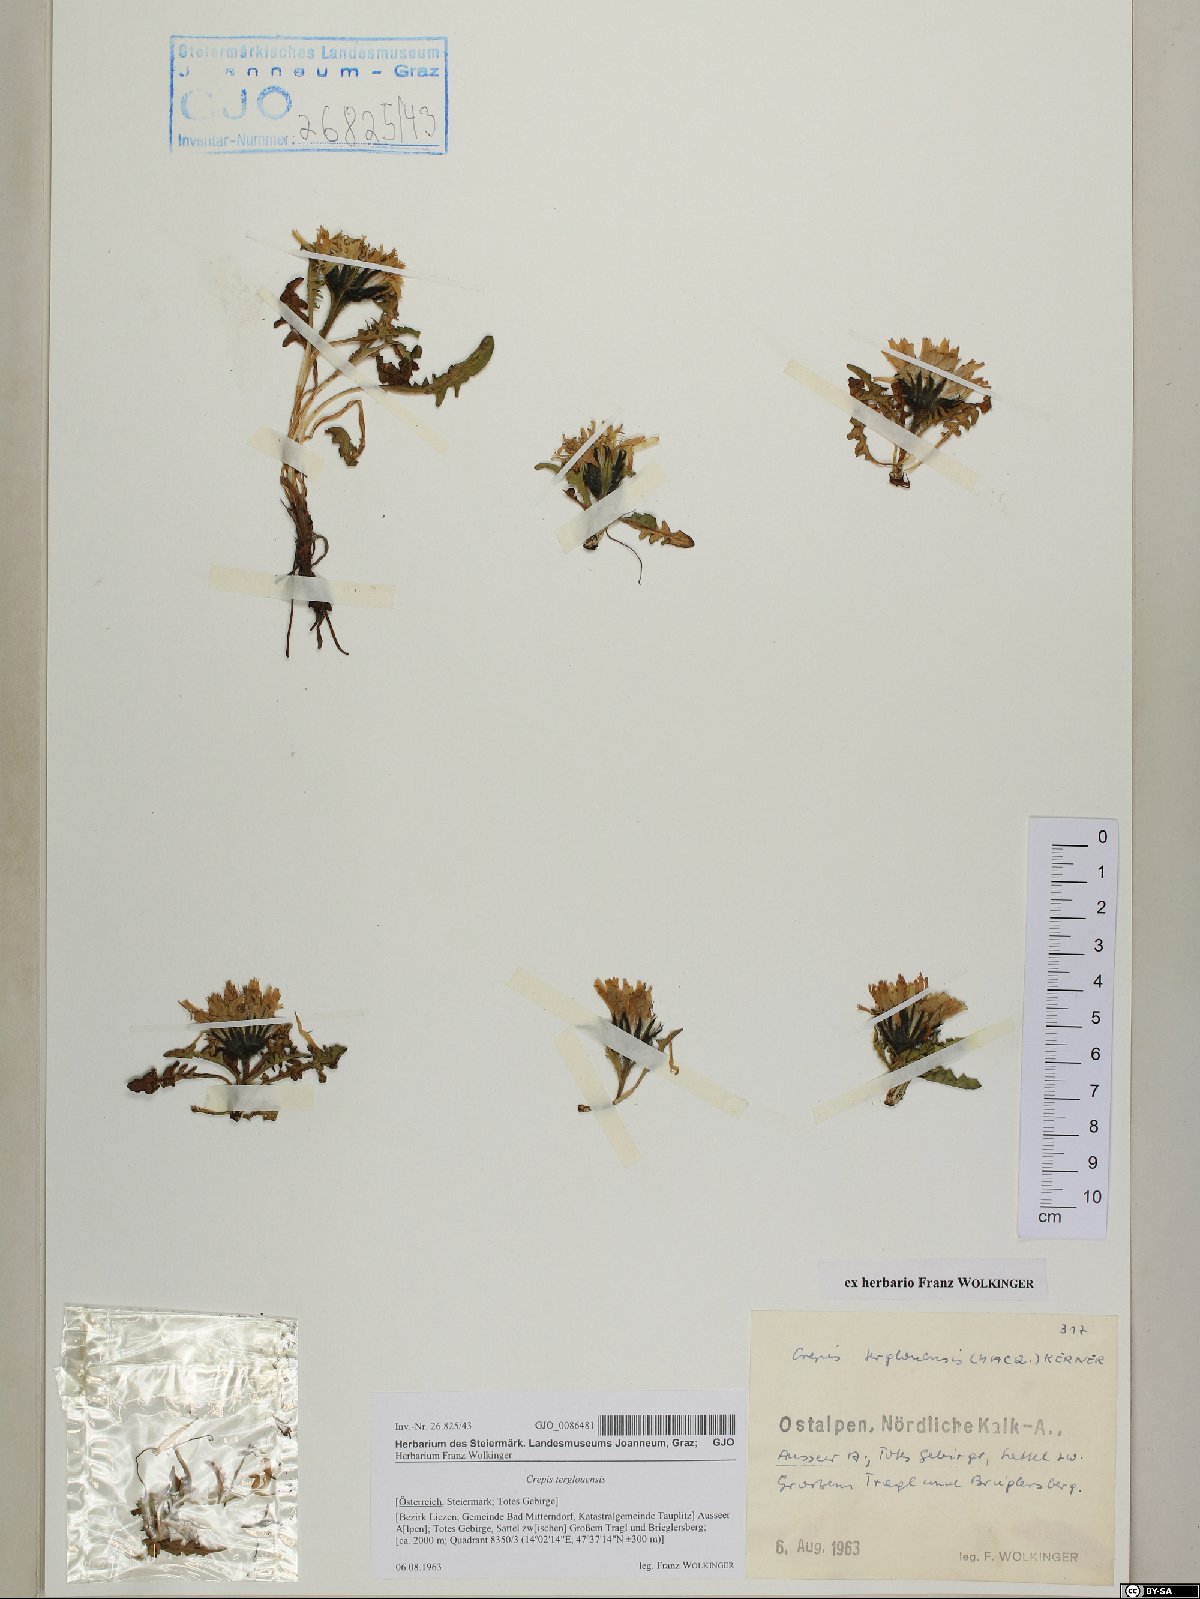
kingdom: Plantae
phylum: Tracheophyta
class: Magnoliopsida
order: Asterales
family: Asteraceae
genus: Crepis
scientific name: Crepis terglouensis
